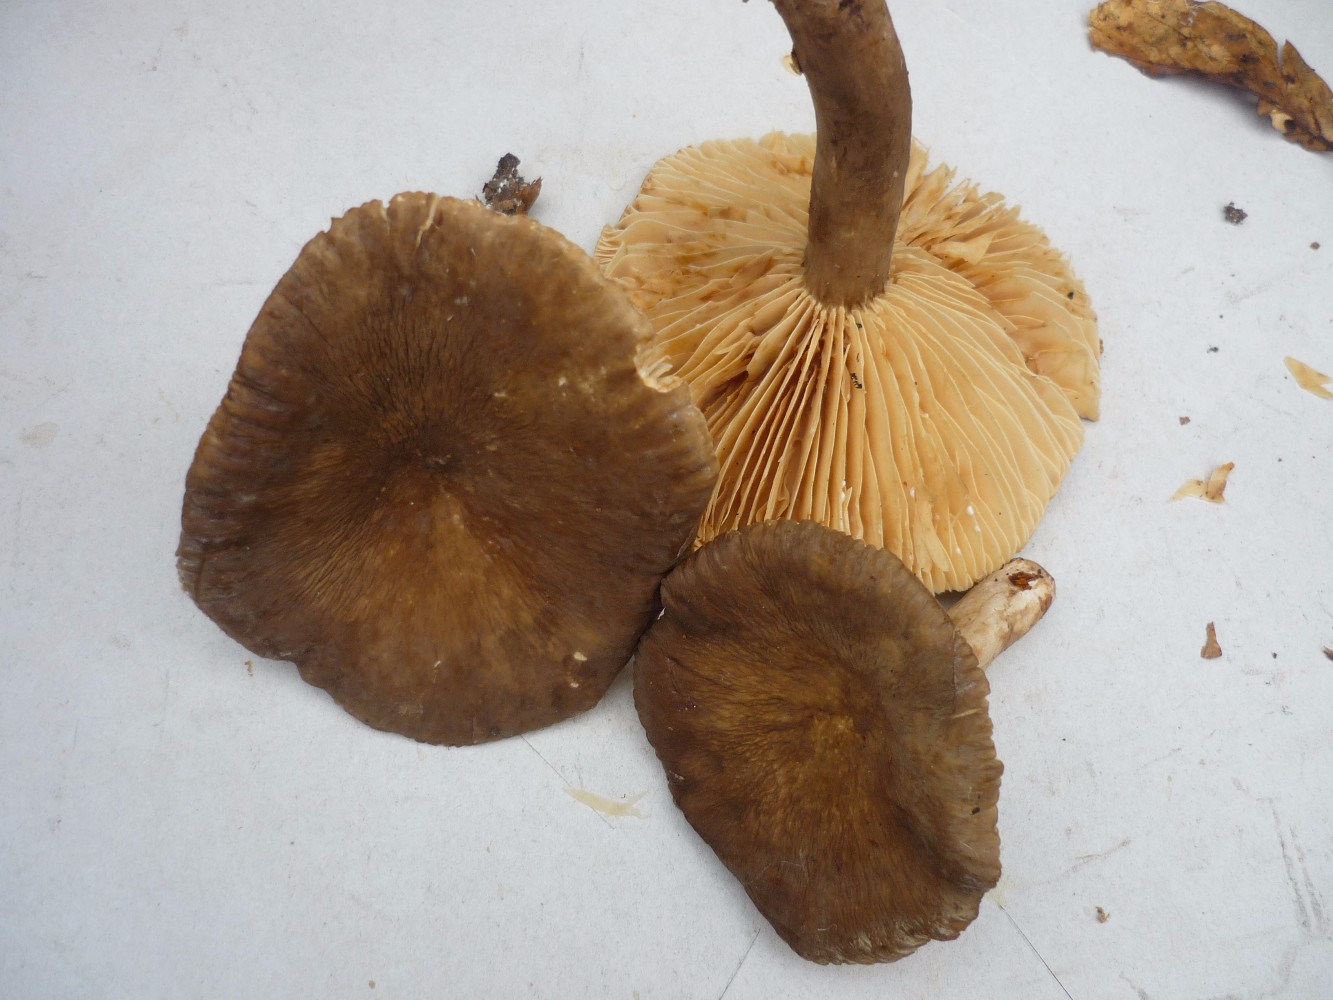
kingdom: Fungi
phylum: Basidiomycota
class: Agaricomycetes
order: Russulales
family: Russulaceae
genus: Lactarius
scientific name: Lactarius romagnesii
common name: fjernbladet mælkehat
